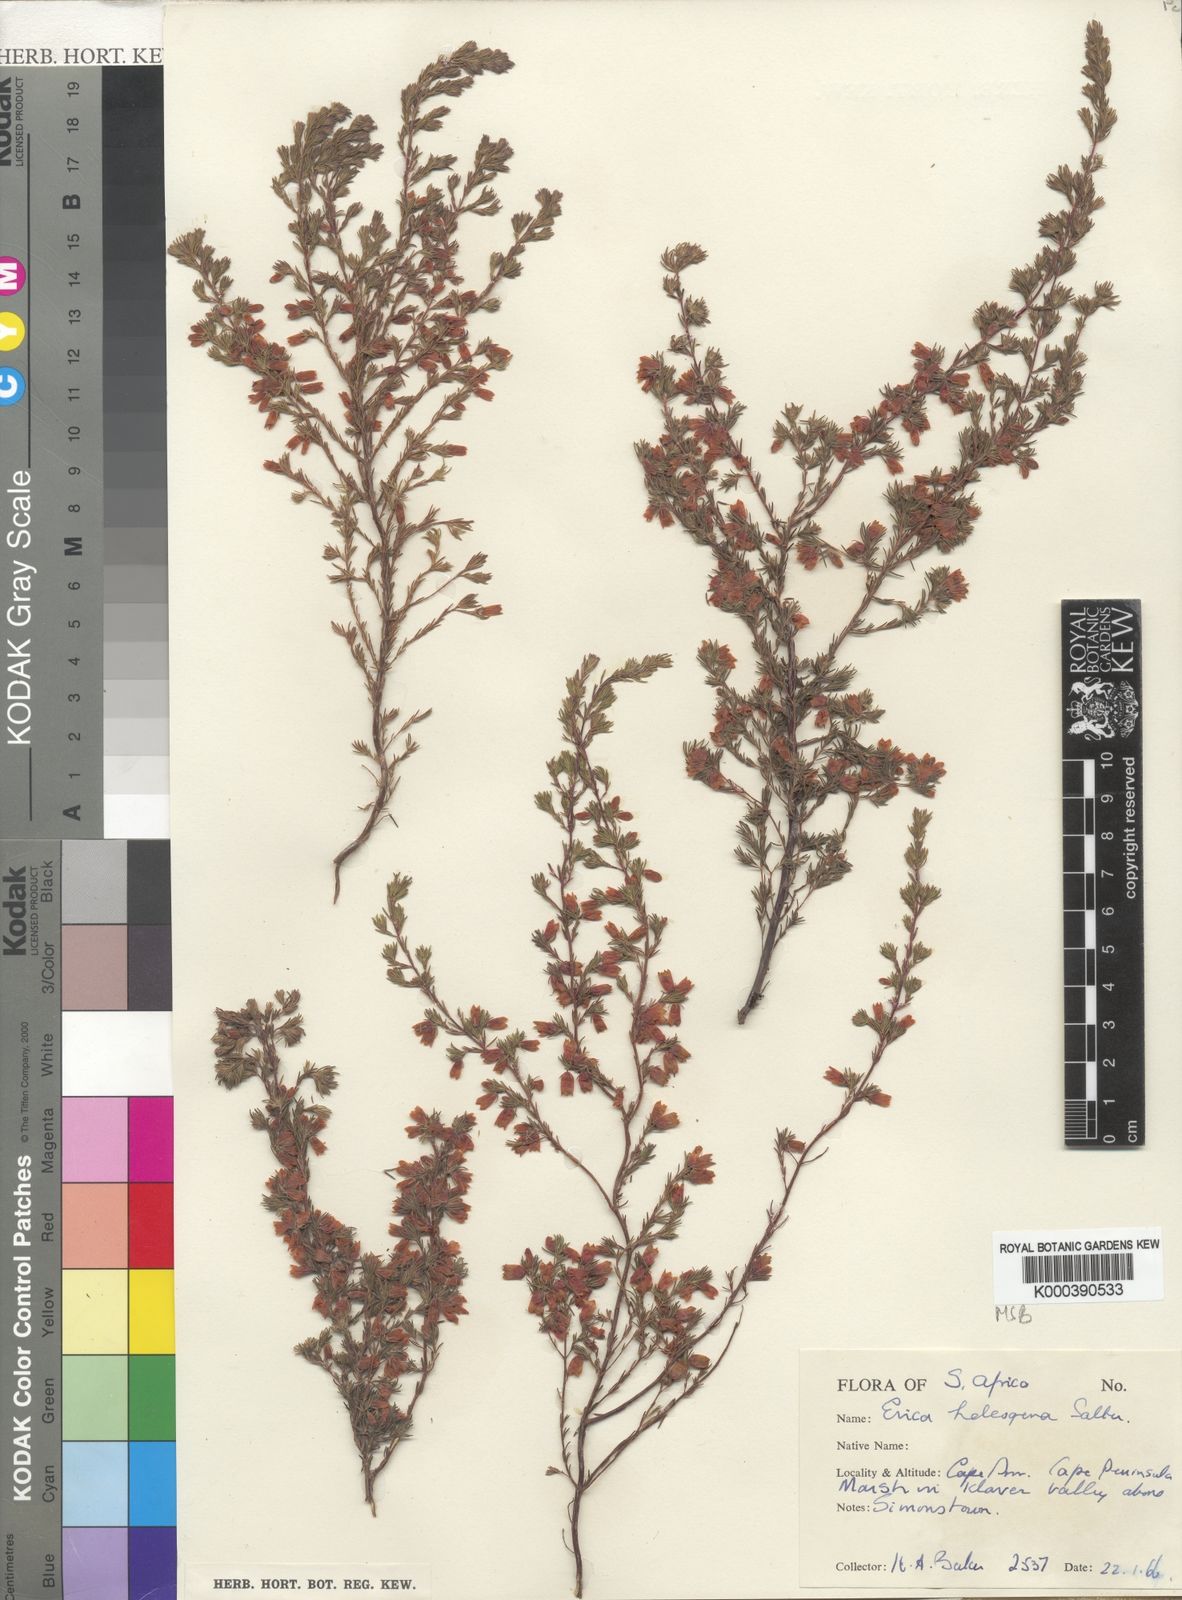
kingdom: Plantae
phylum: Tracheophyta
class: Magnoliopsida
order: Ericales
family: Ericaceae
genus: Erica
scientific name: Erica heleogena
